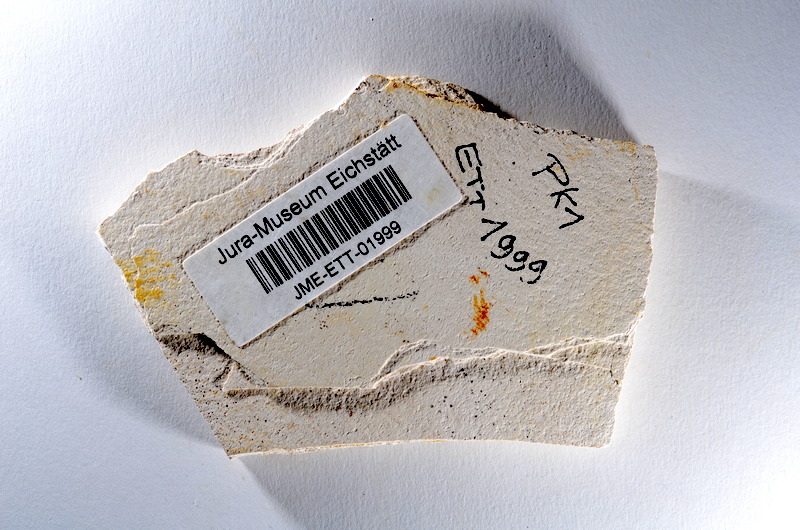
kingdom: Animalia
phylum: Chordata
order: Salmoniformes
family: Orthogonikleithridae
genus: Orthogonikleithrus
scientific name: Orthogonikleithrus hoelli
